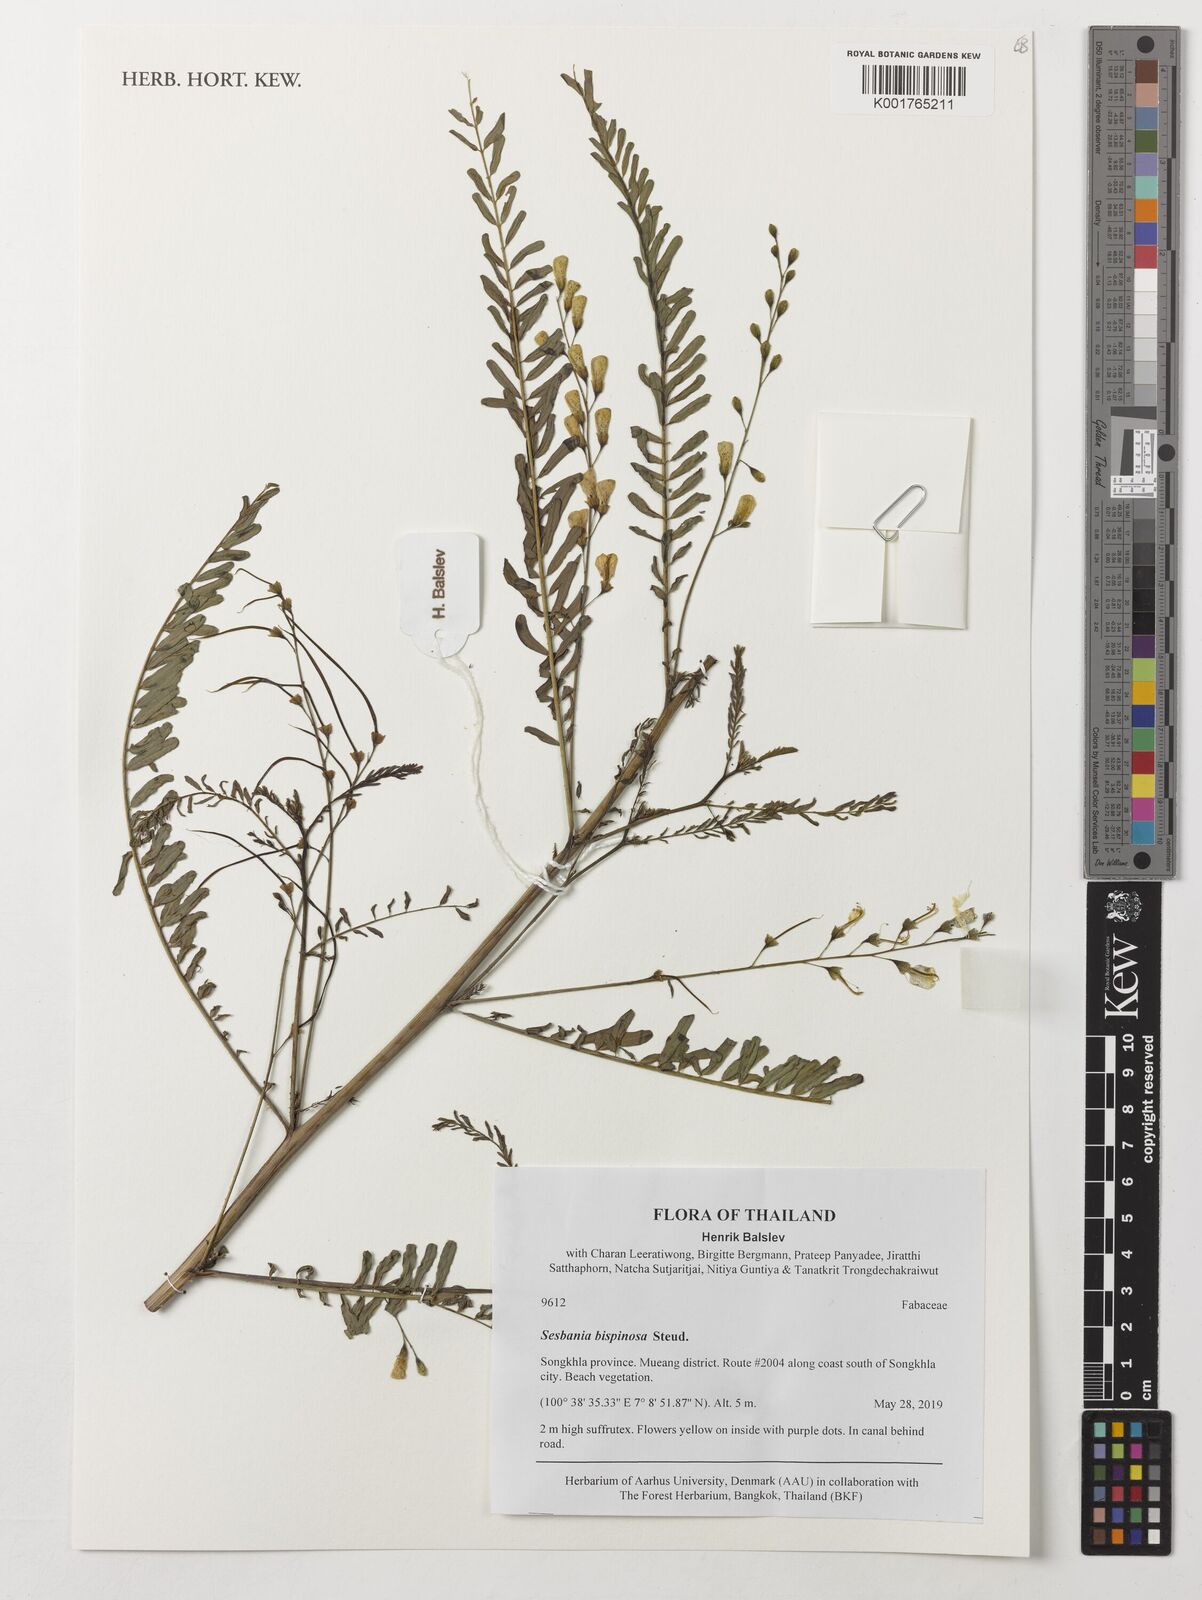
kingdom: Plantae
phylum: Tracheophyta
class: Magnoliopsida
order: Fabales
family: Fabaceae
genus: Sesbania
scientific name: Sesbania bispinosa
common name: Sesbania pea
